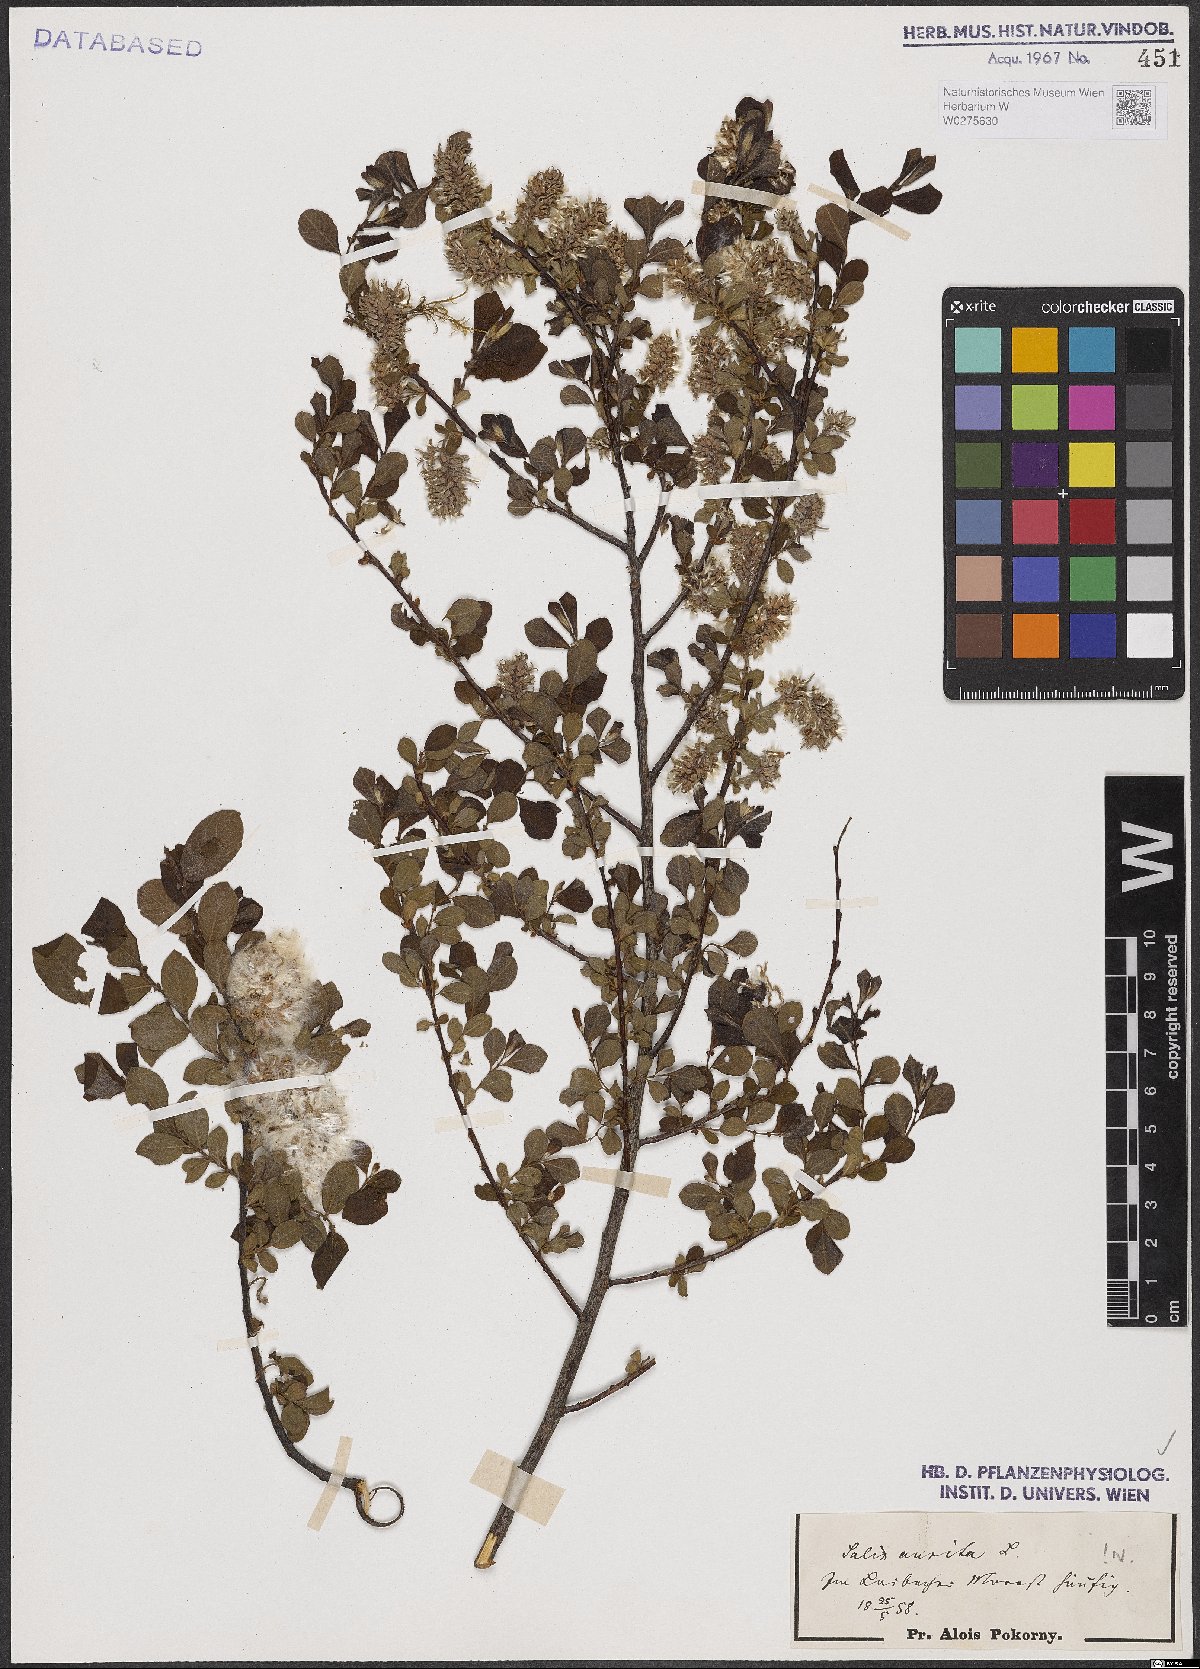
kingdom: Plantae
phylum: Tracheophyta
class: Magnoliopsida
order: Malpighiales
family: Salicaceae
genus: Salix
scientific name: Salix aurita
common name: Eared willow
